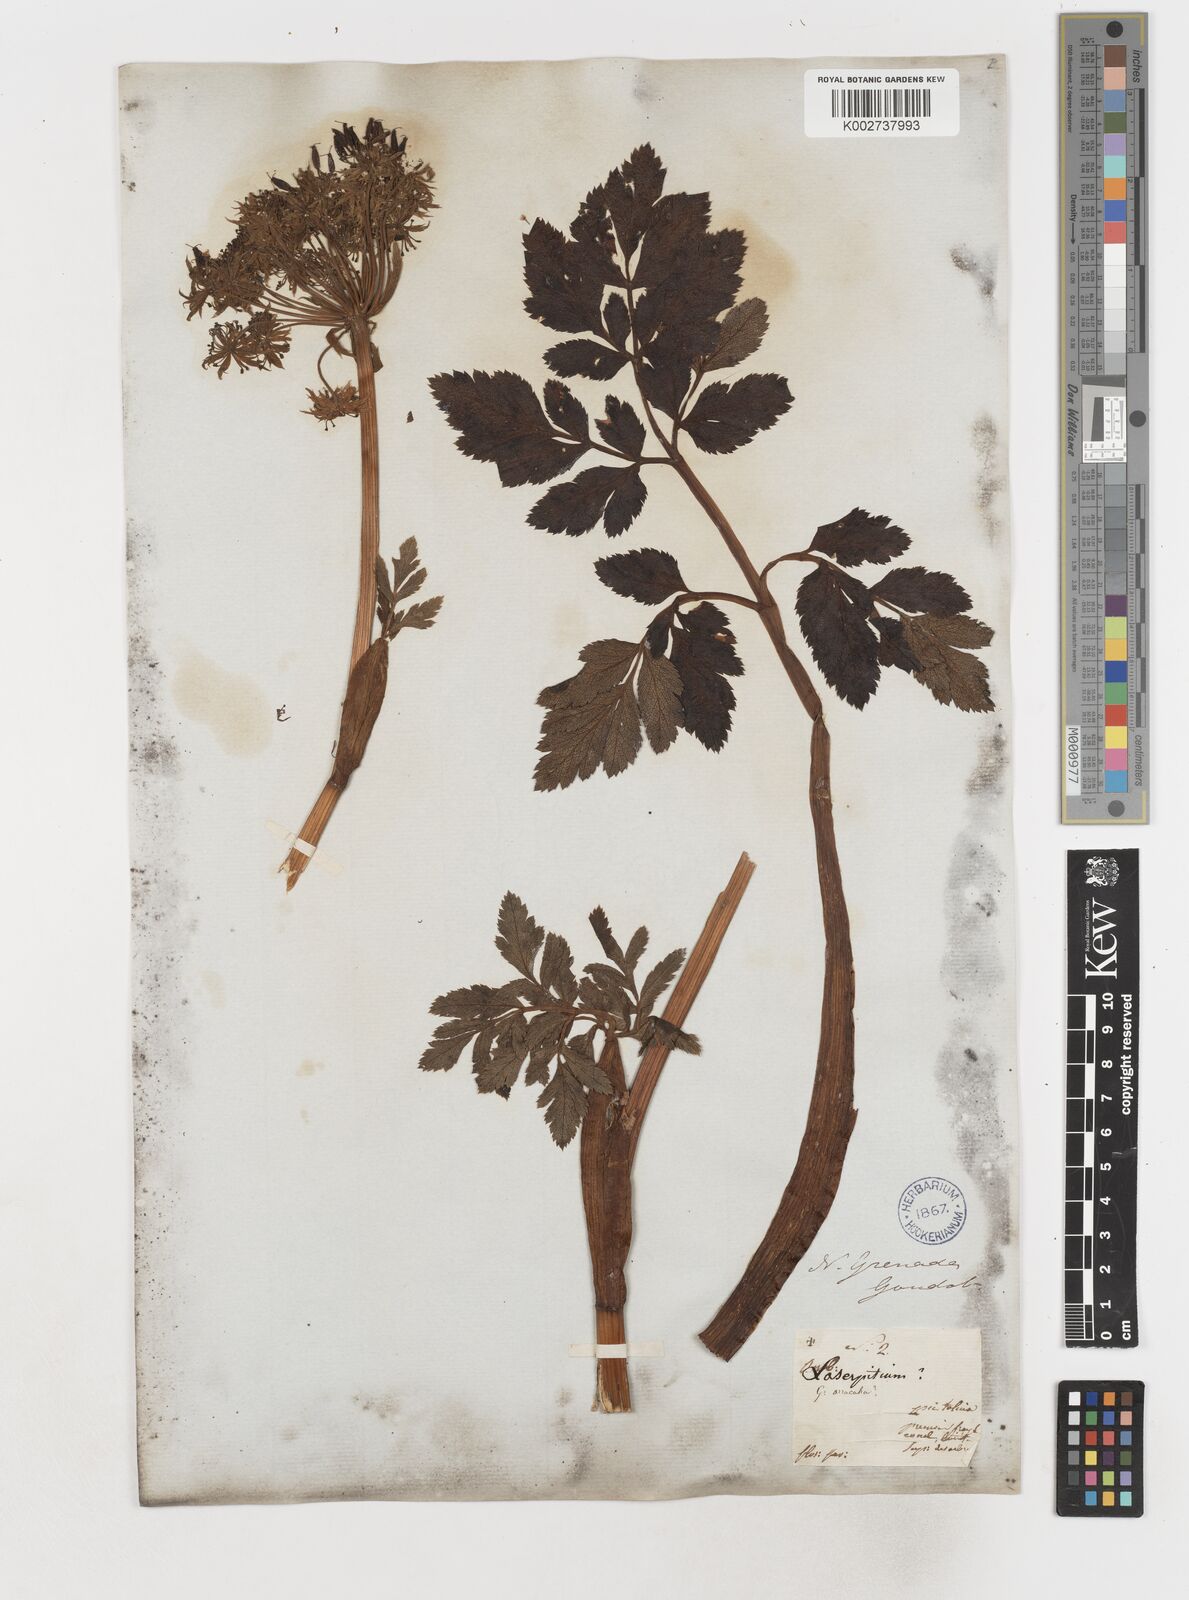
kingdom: Plantae
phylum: Tracheophyta
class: Magnoliopsida
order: Apiales
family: Apiaceae
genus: Myrrhidendron
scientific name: Myrrhidendron glaucescens
